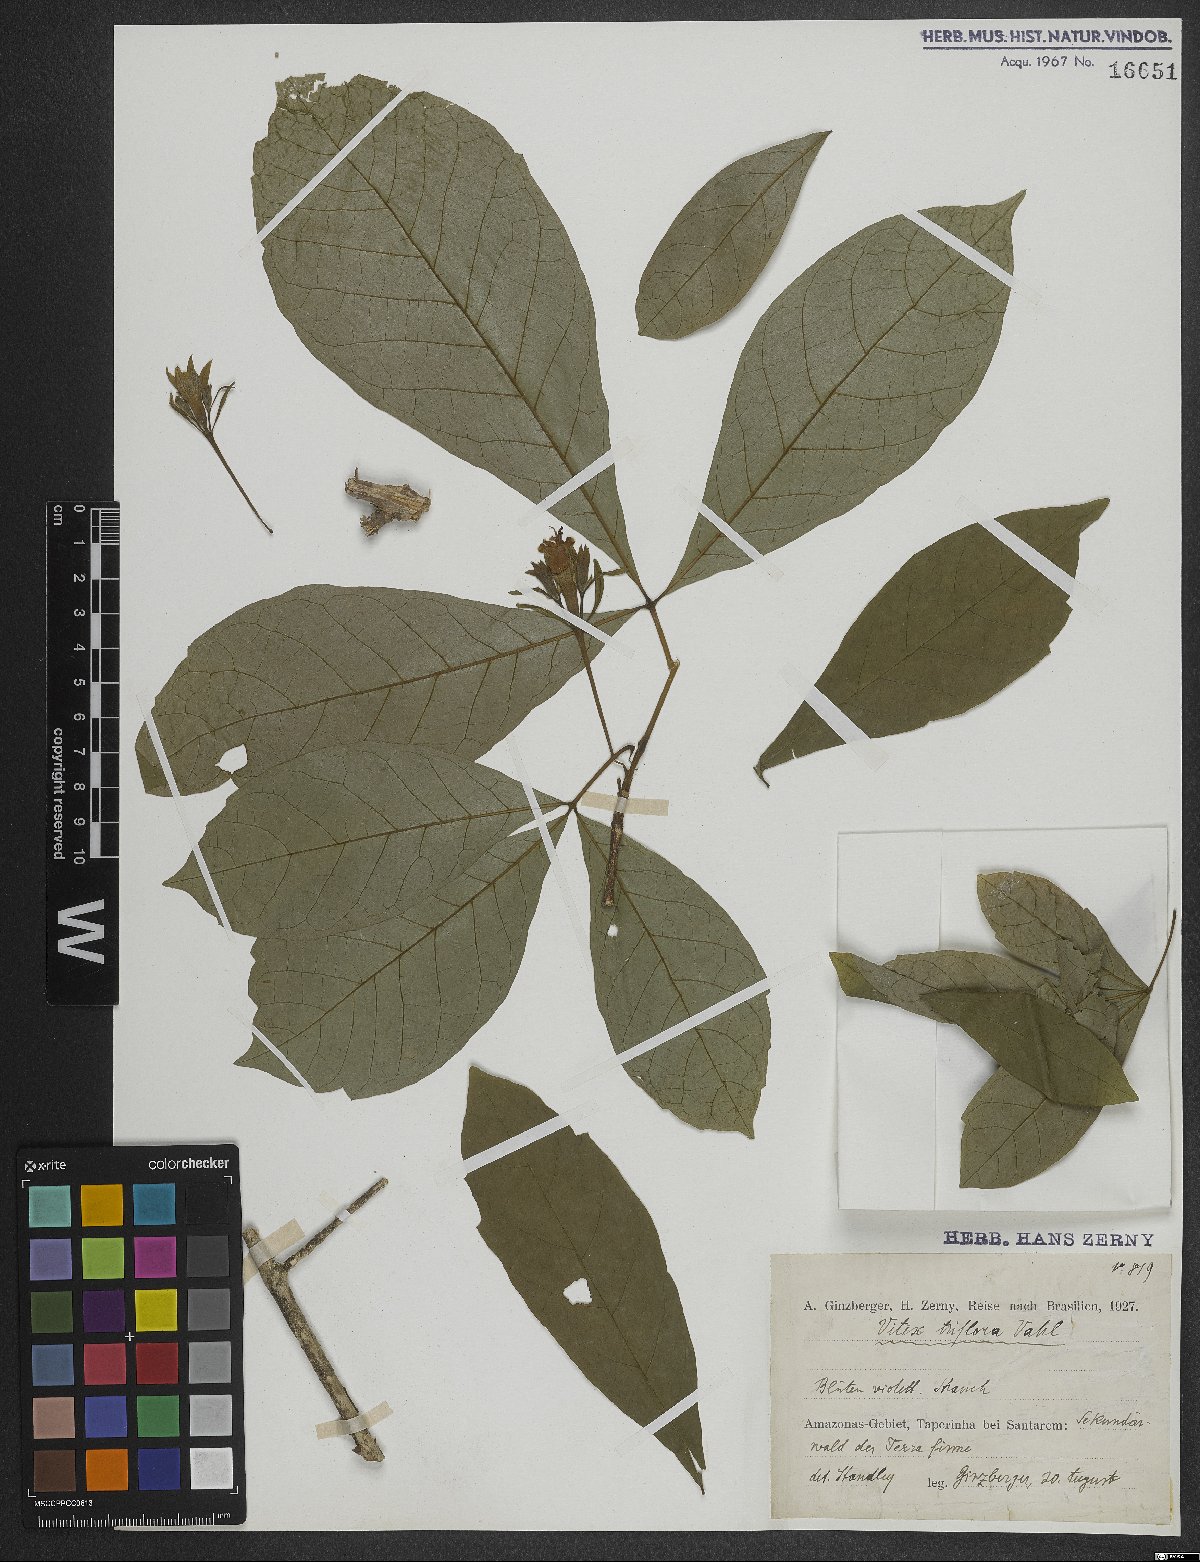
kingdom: Plantae
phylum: Tracheophyta
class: Magnoliopsida
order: Lamiales
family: Lamiaceae
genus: Vitex
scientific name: Vitex triflora
